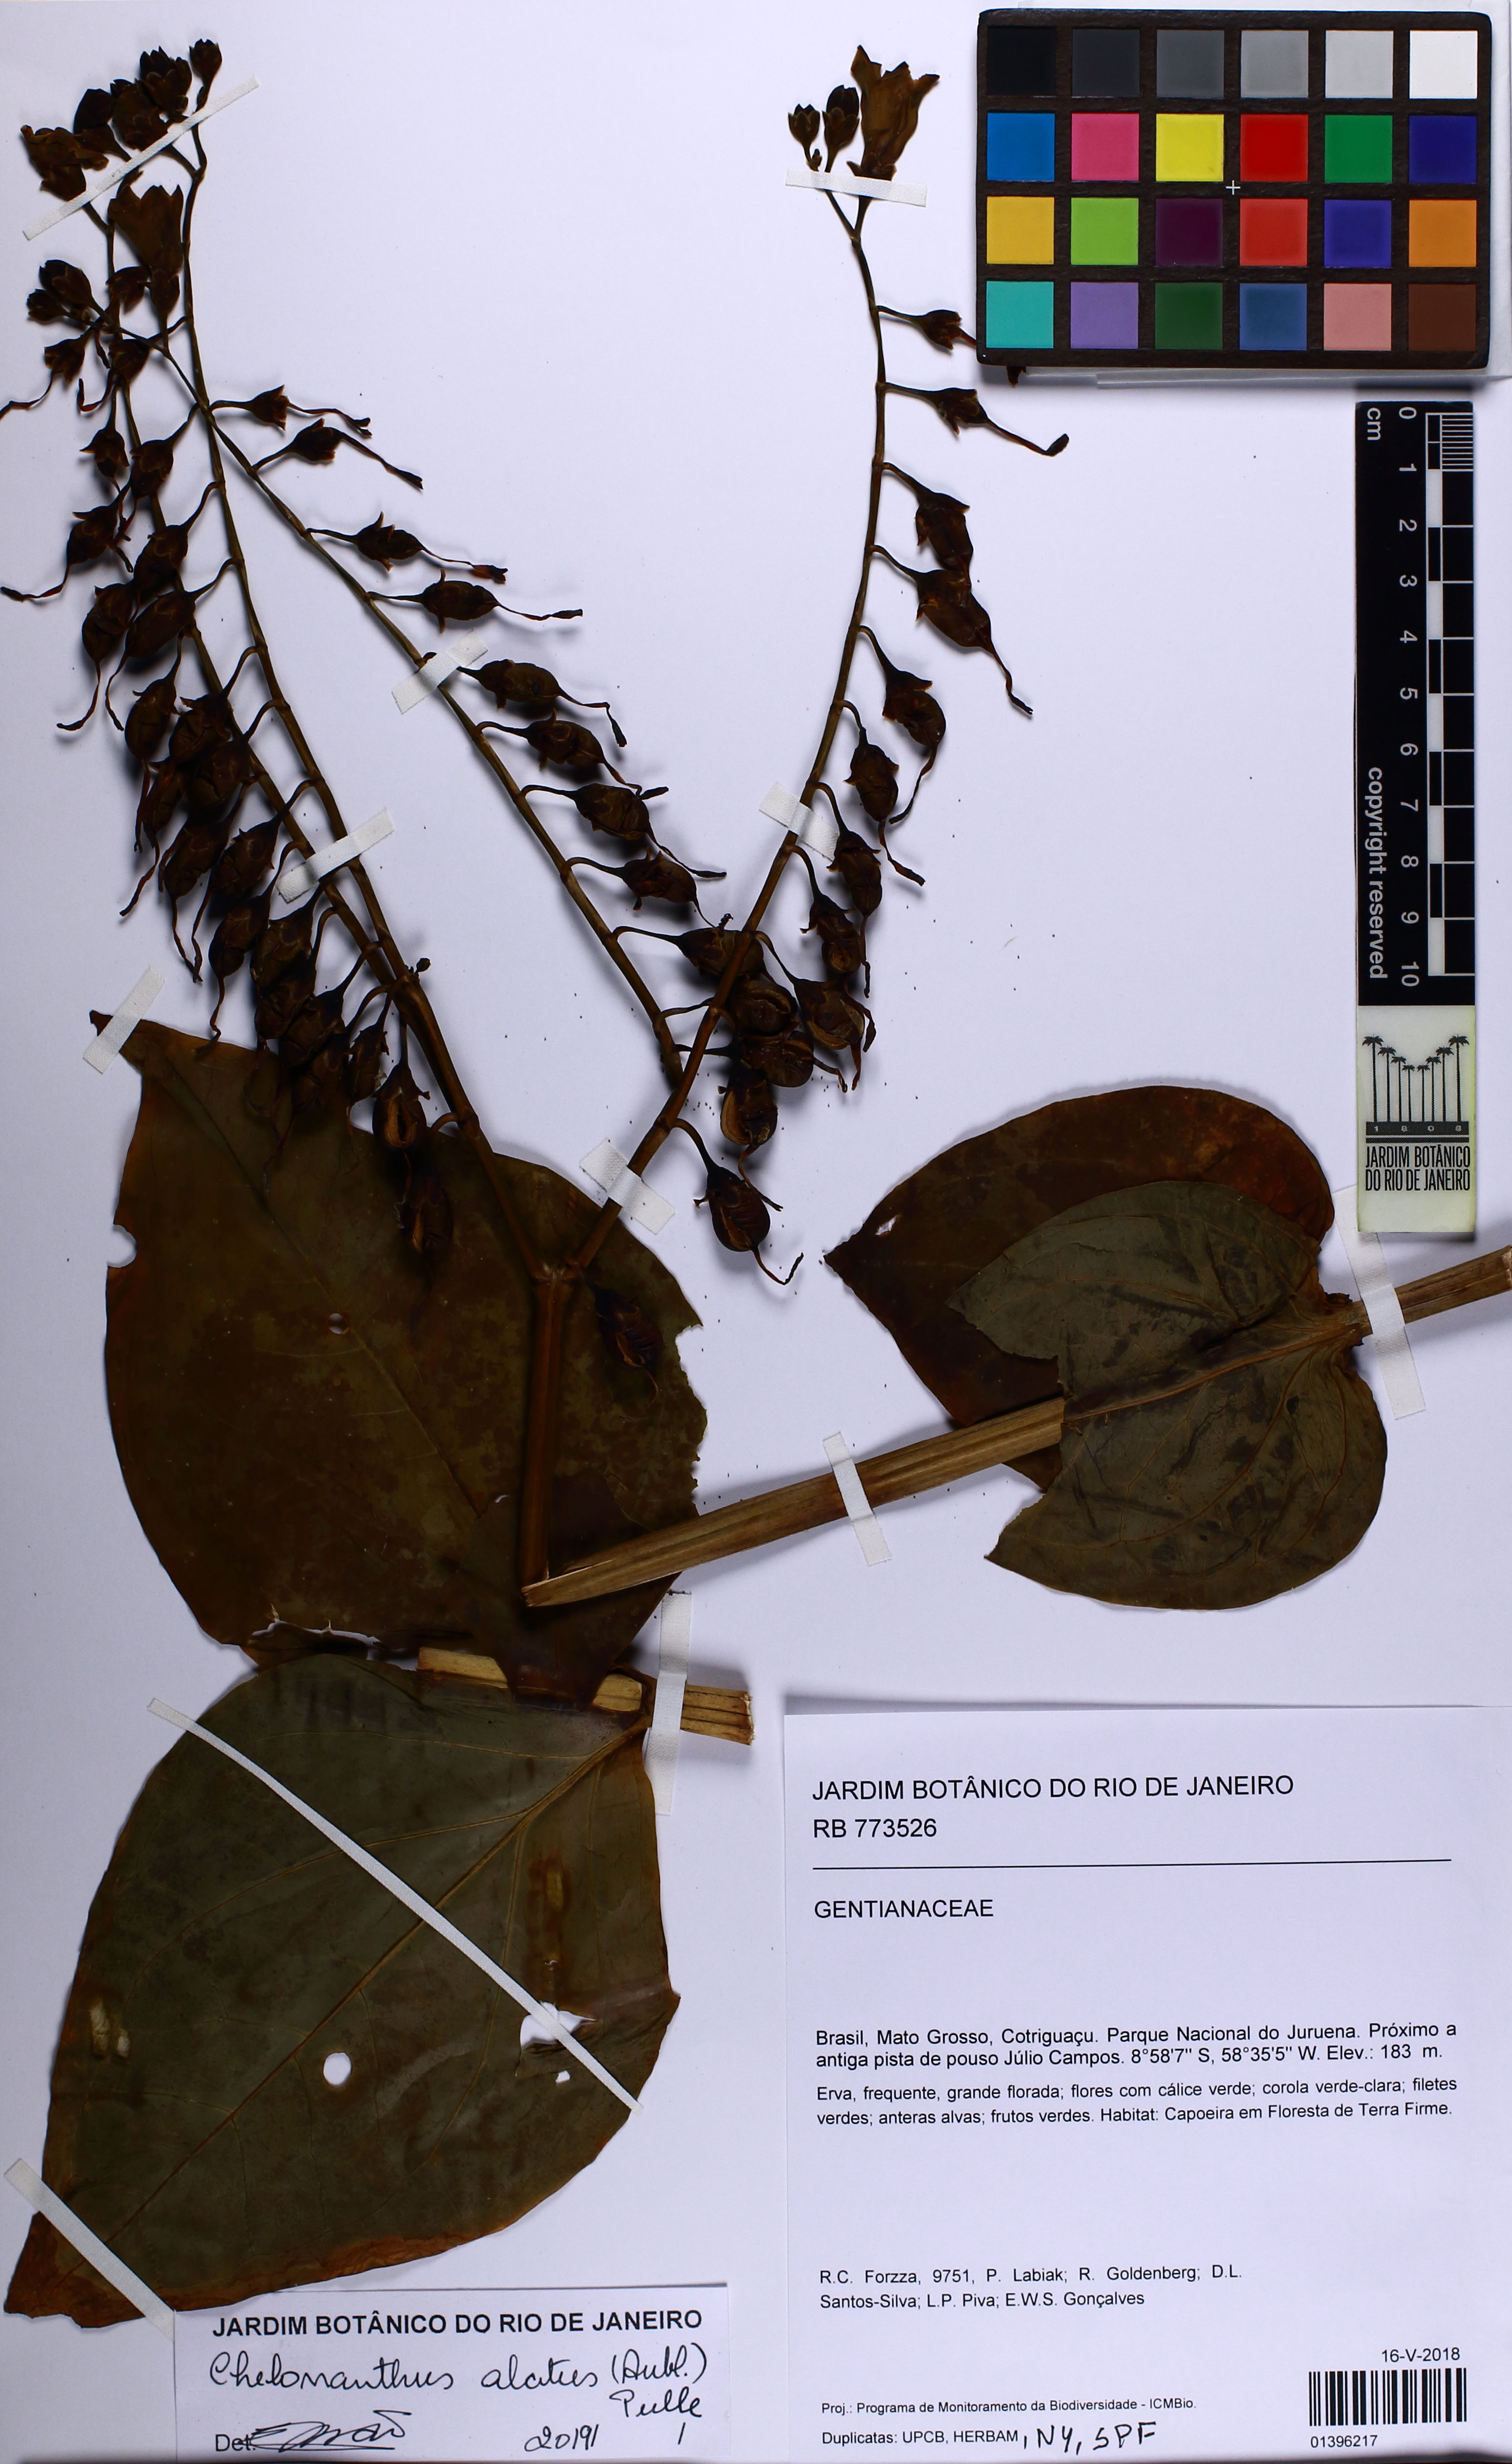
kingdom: Plantae
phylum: Tracheophyta
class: Magnoliopsida
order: Gentianales
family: Gentianaceae
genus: Chelonanthus
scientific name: Chelonanthus alatus
